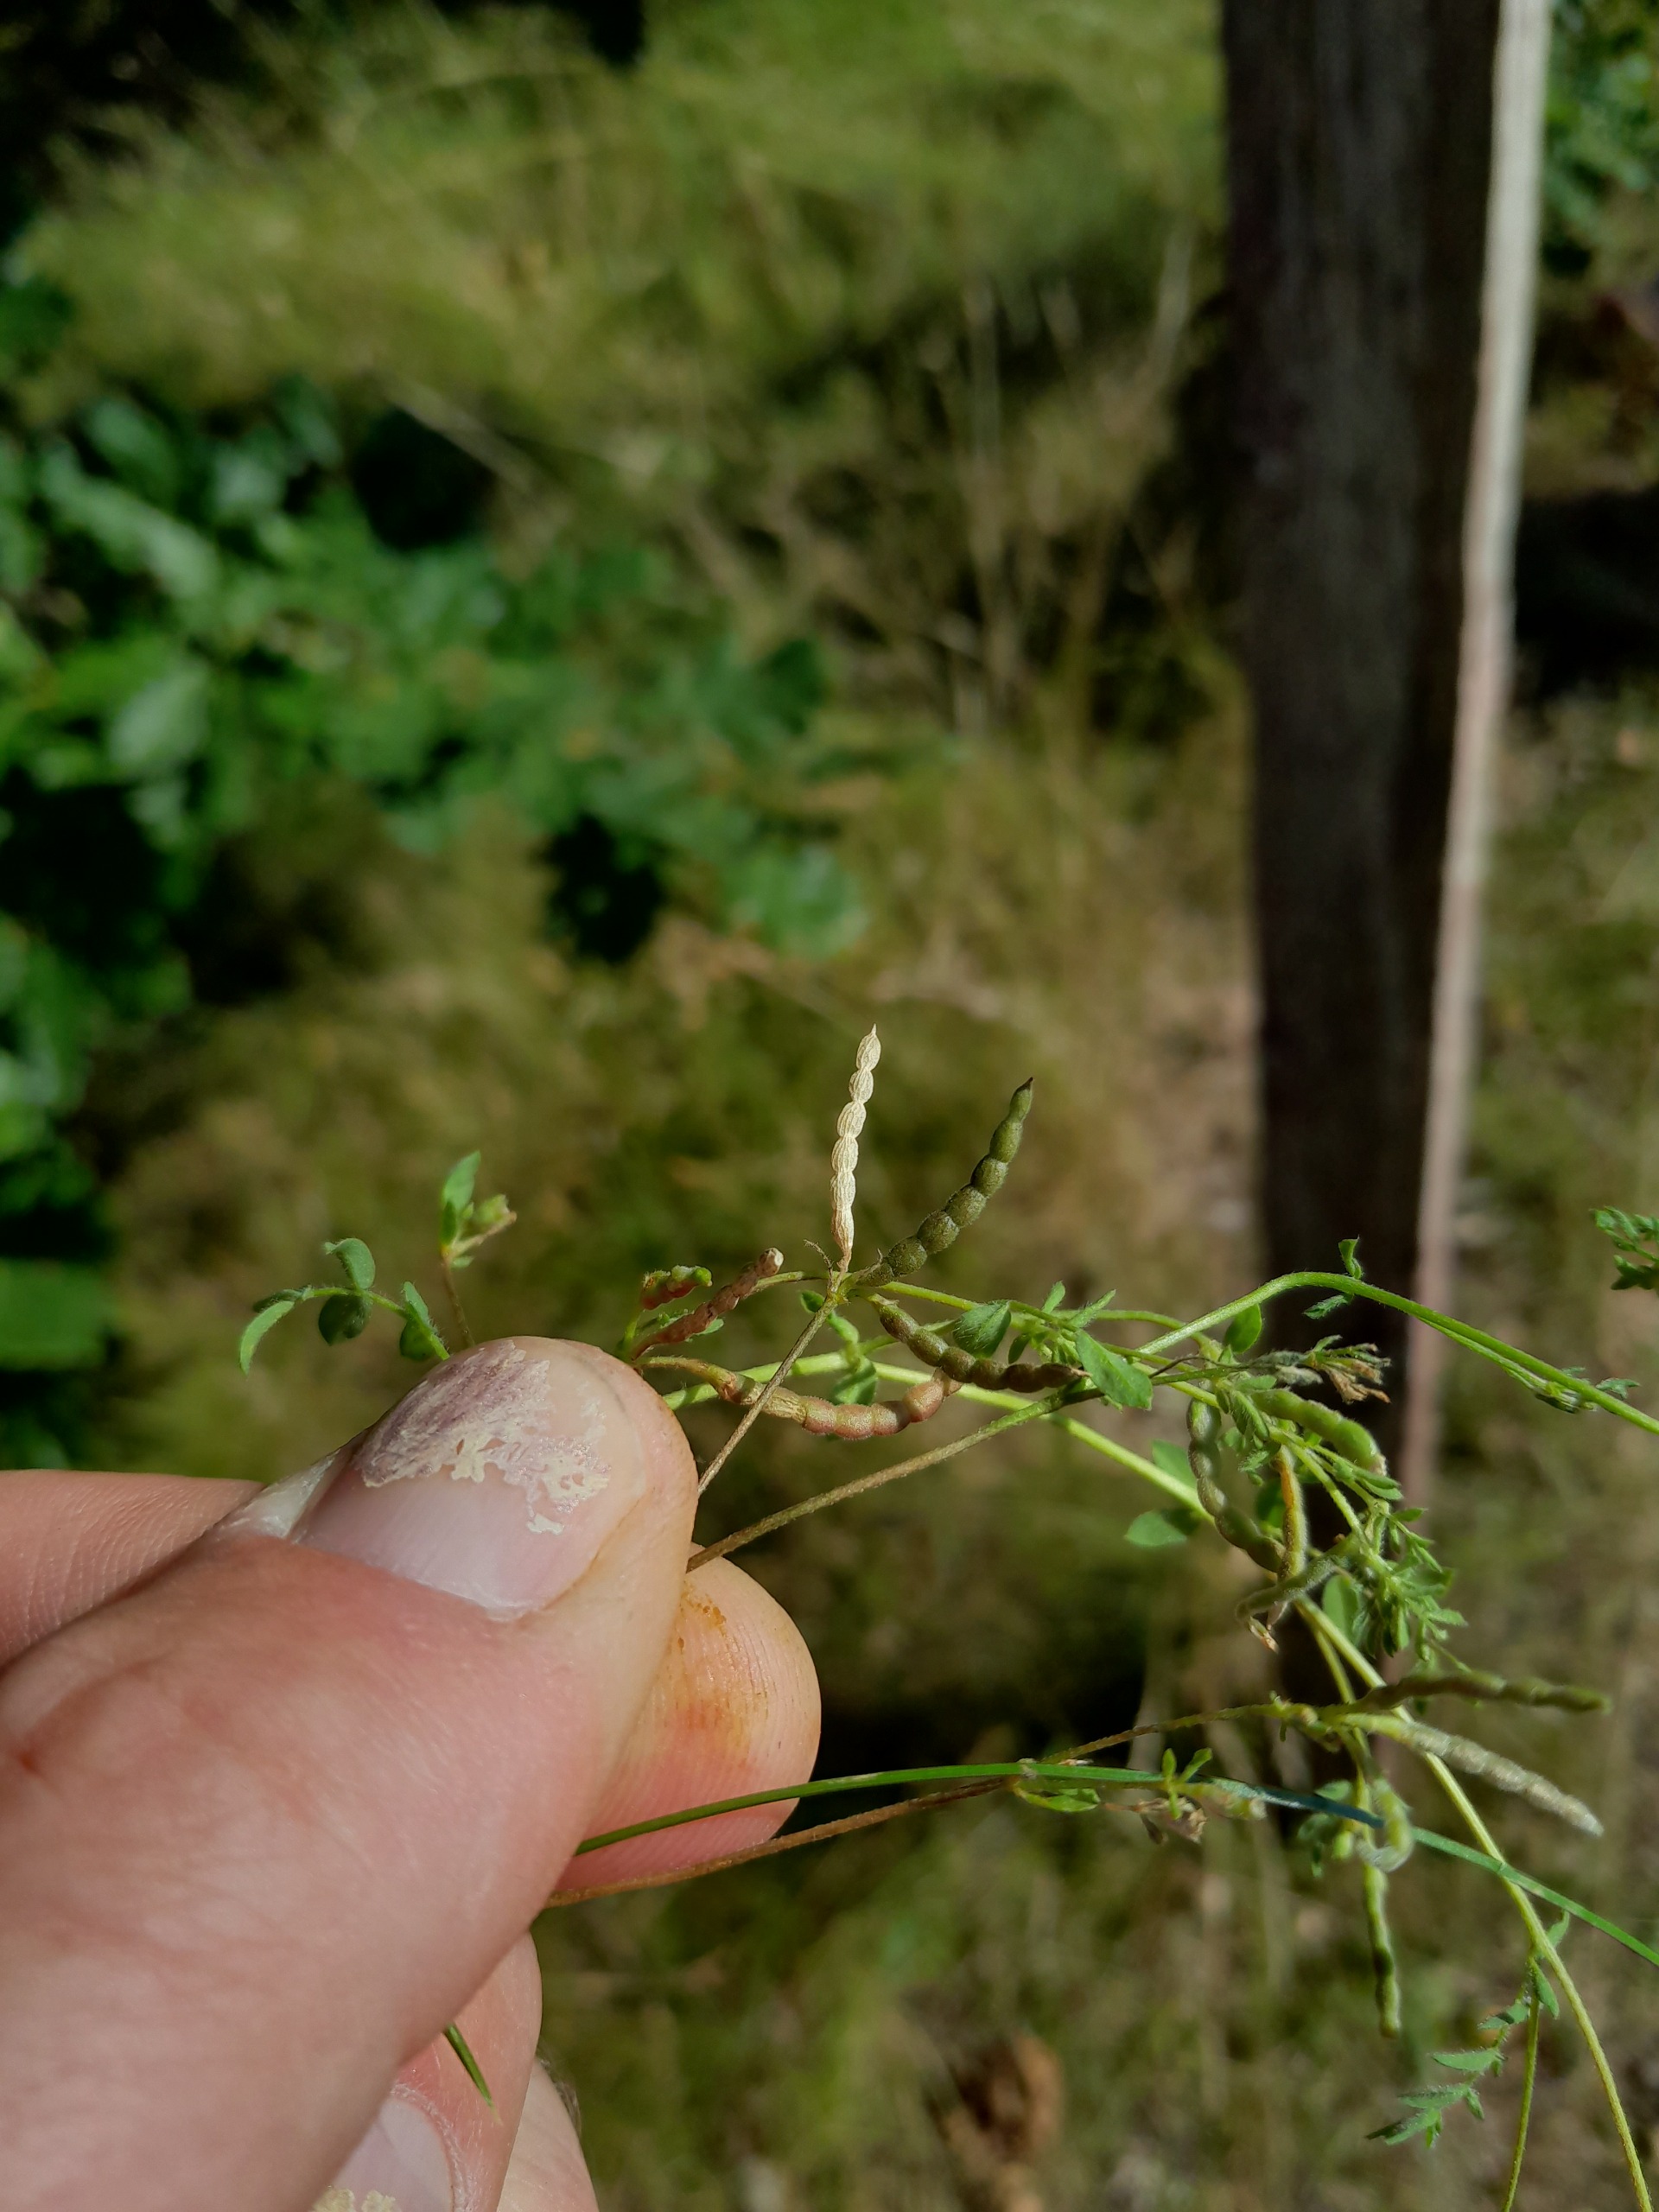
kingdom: Plantae
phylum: Tracheophyta
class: Magnoliopsida
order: Fabales
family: Fabaceae
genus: Ornithopus
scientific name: Ornithopus perpusillus
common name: Liden fugleklo
